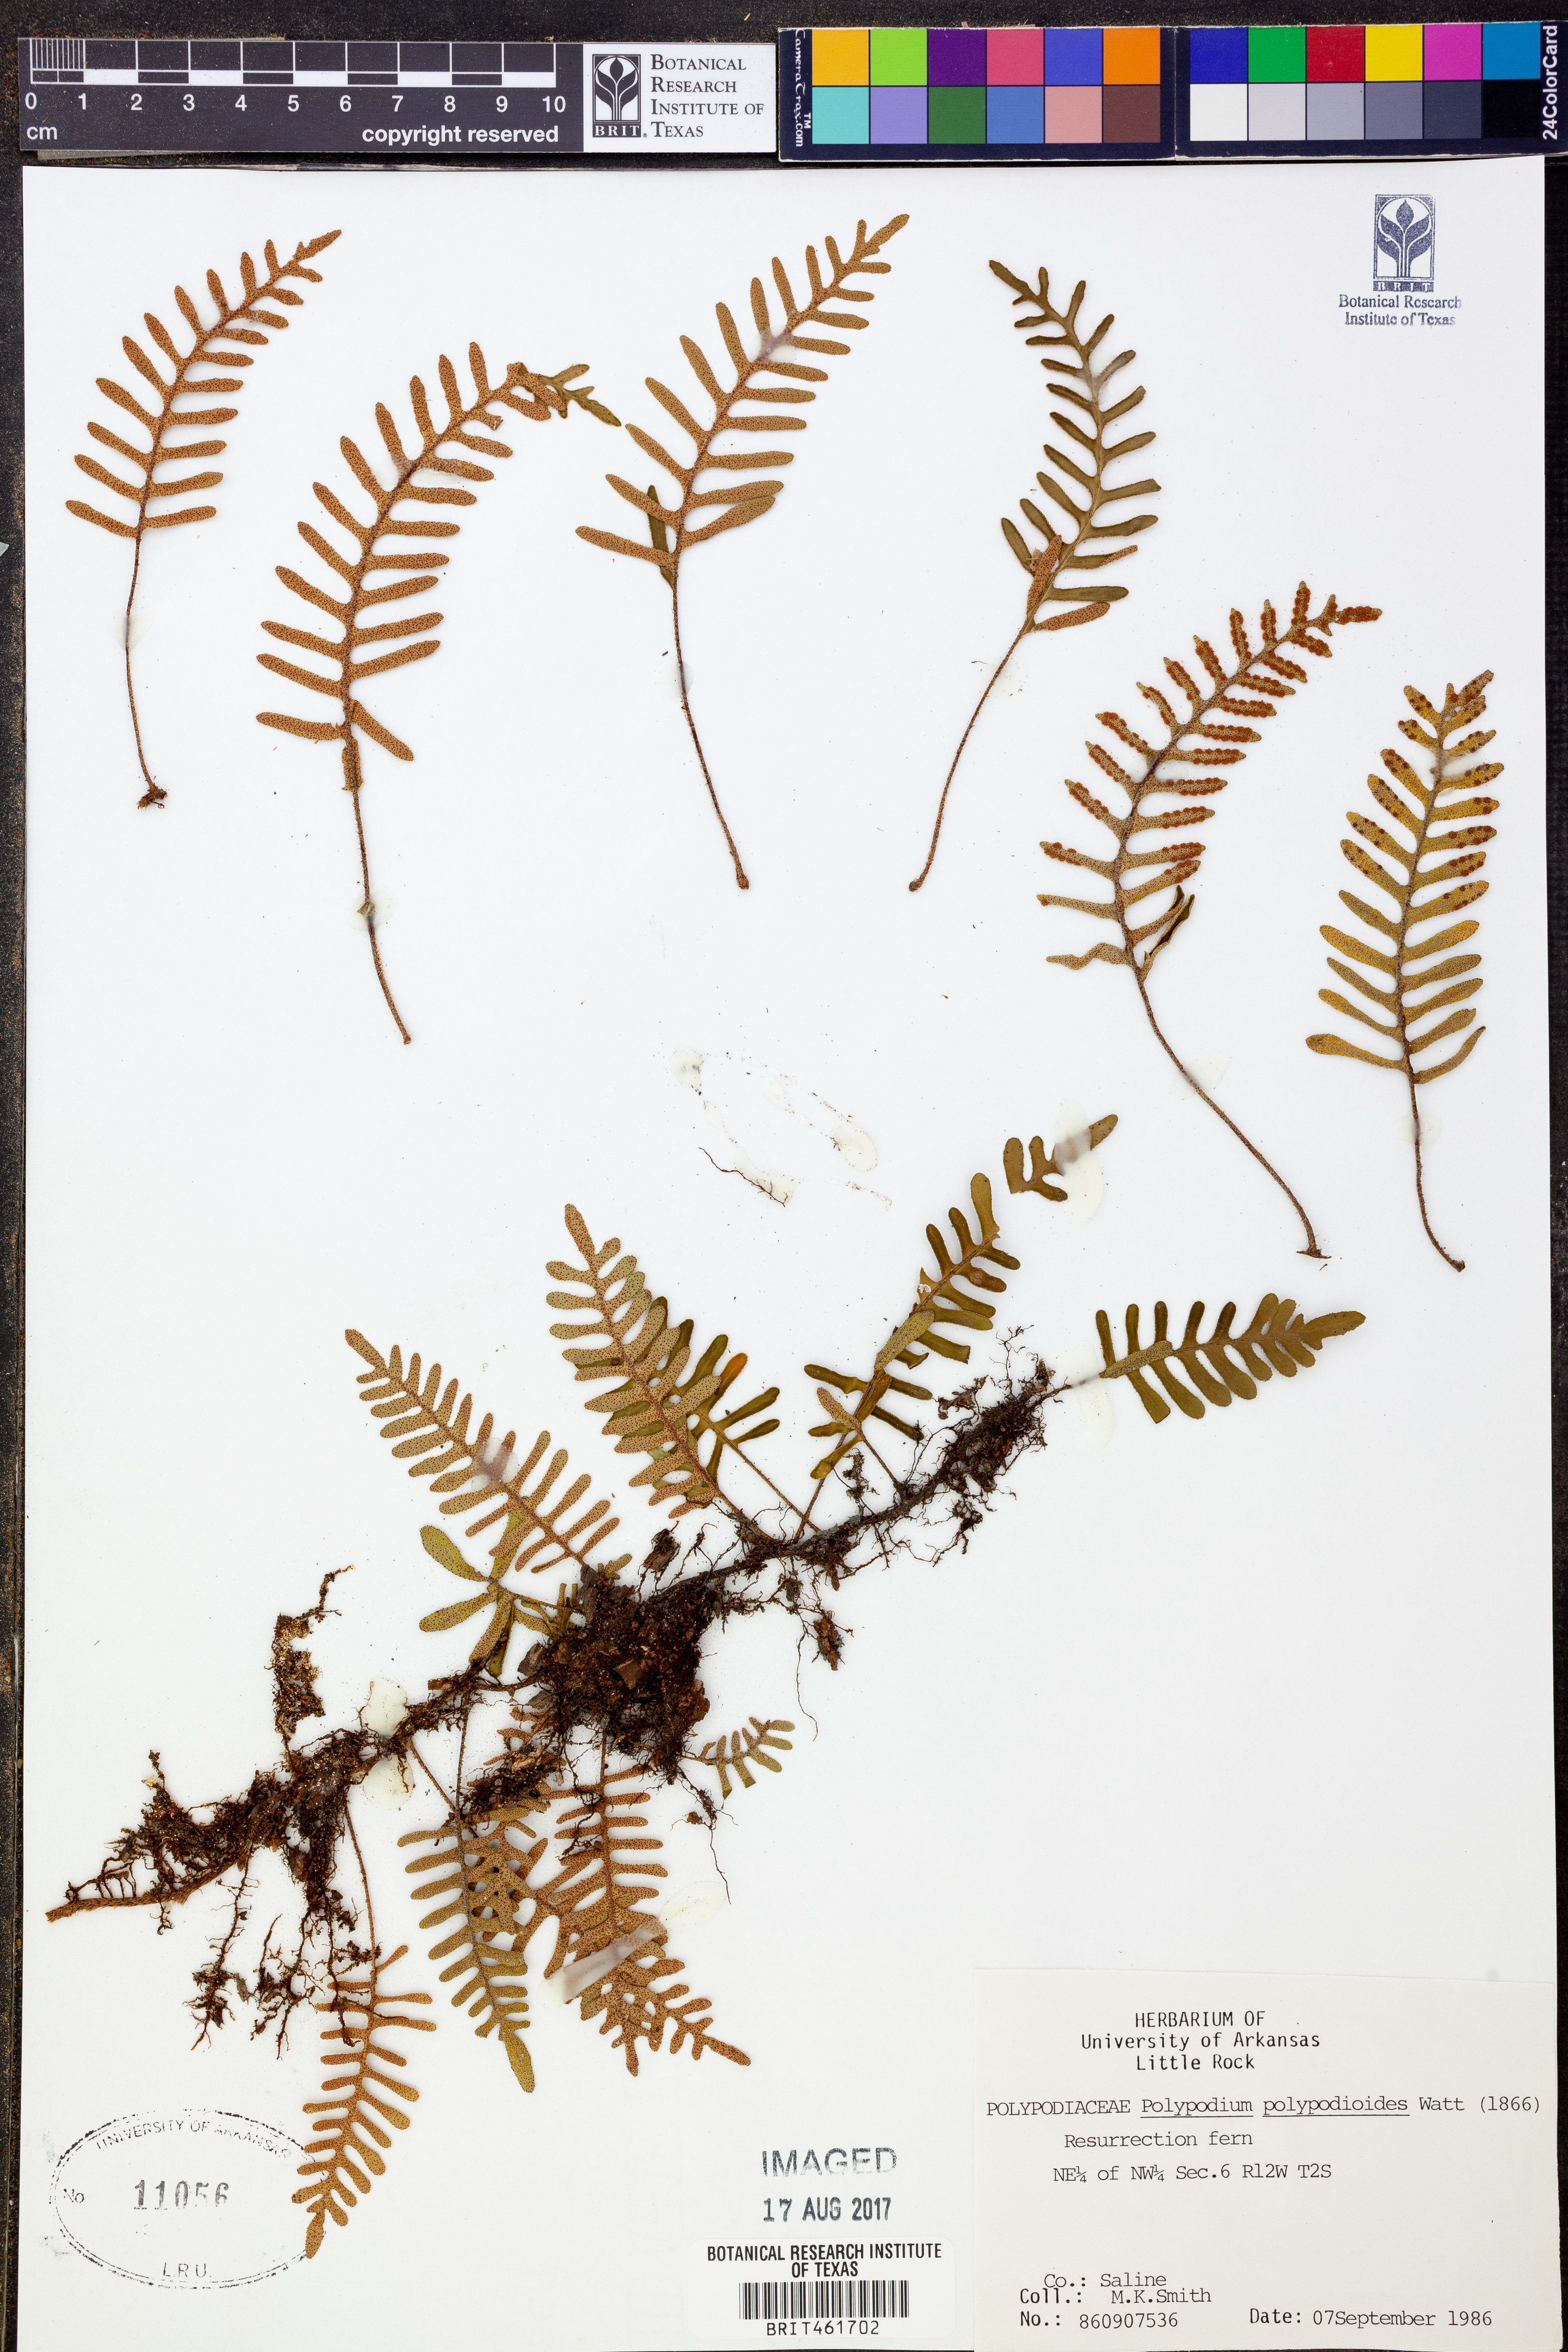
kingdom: Plantae
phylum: Tracheophyta
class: Polypodiopsida
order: Polypodiales
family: Polypodiaceae
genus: Pleopeltis
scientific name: Pleopeltis polypodioides
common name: Resurrection fern
